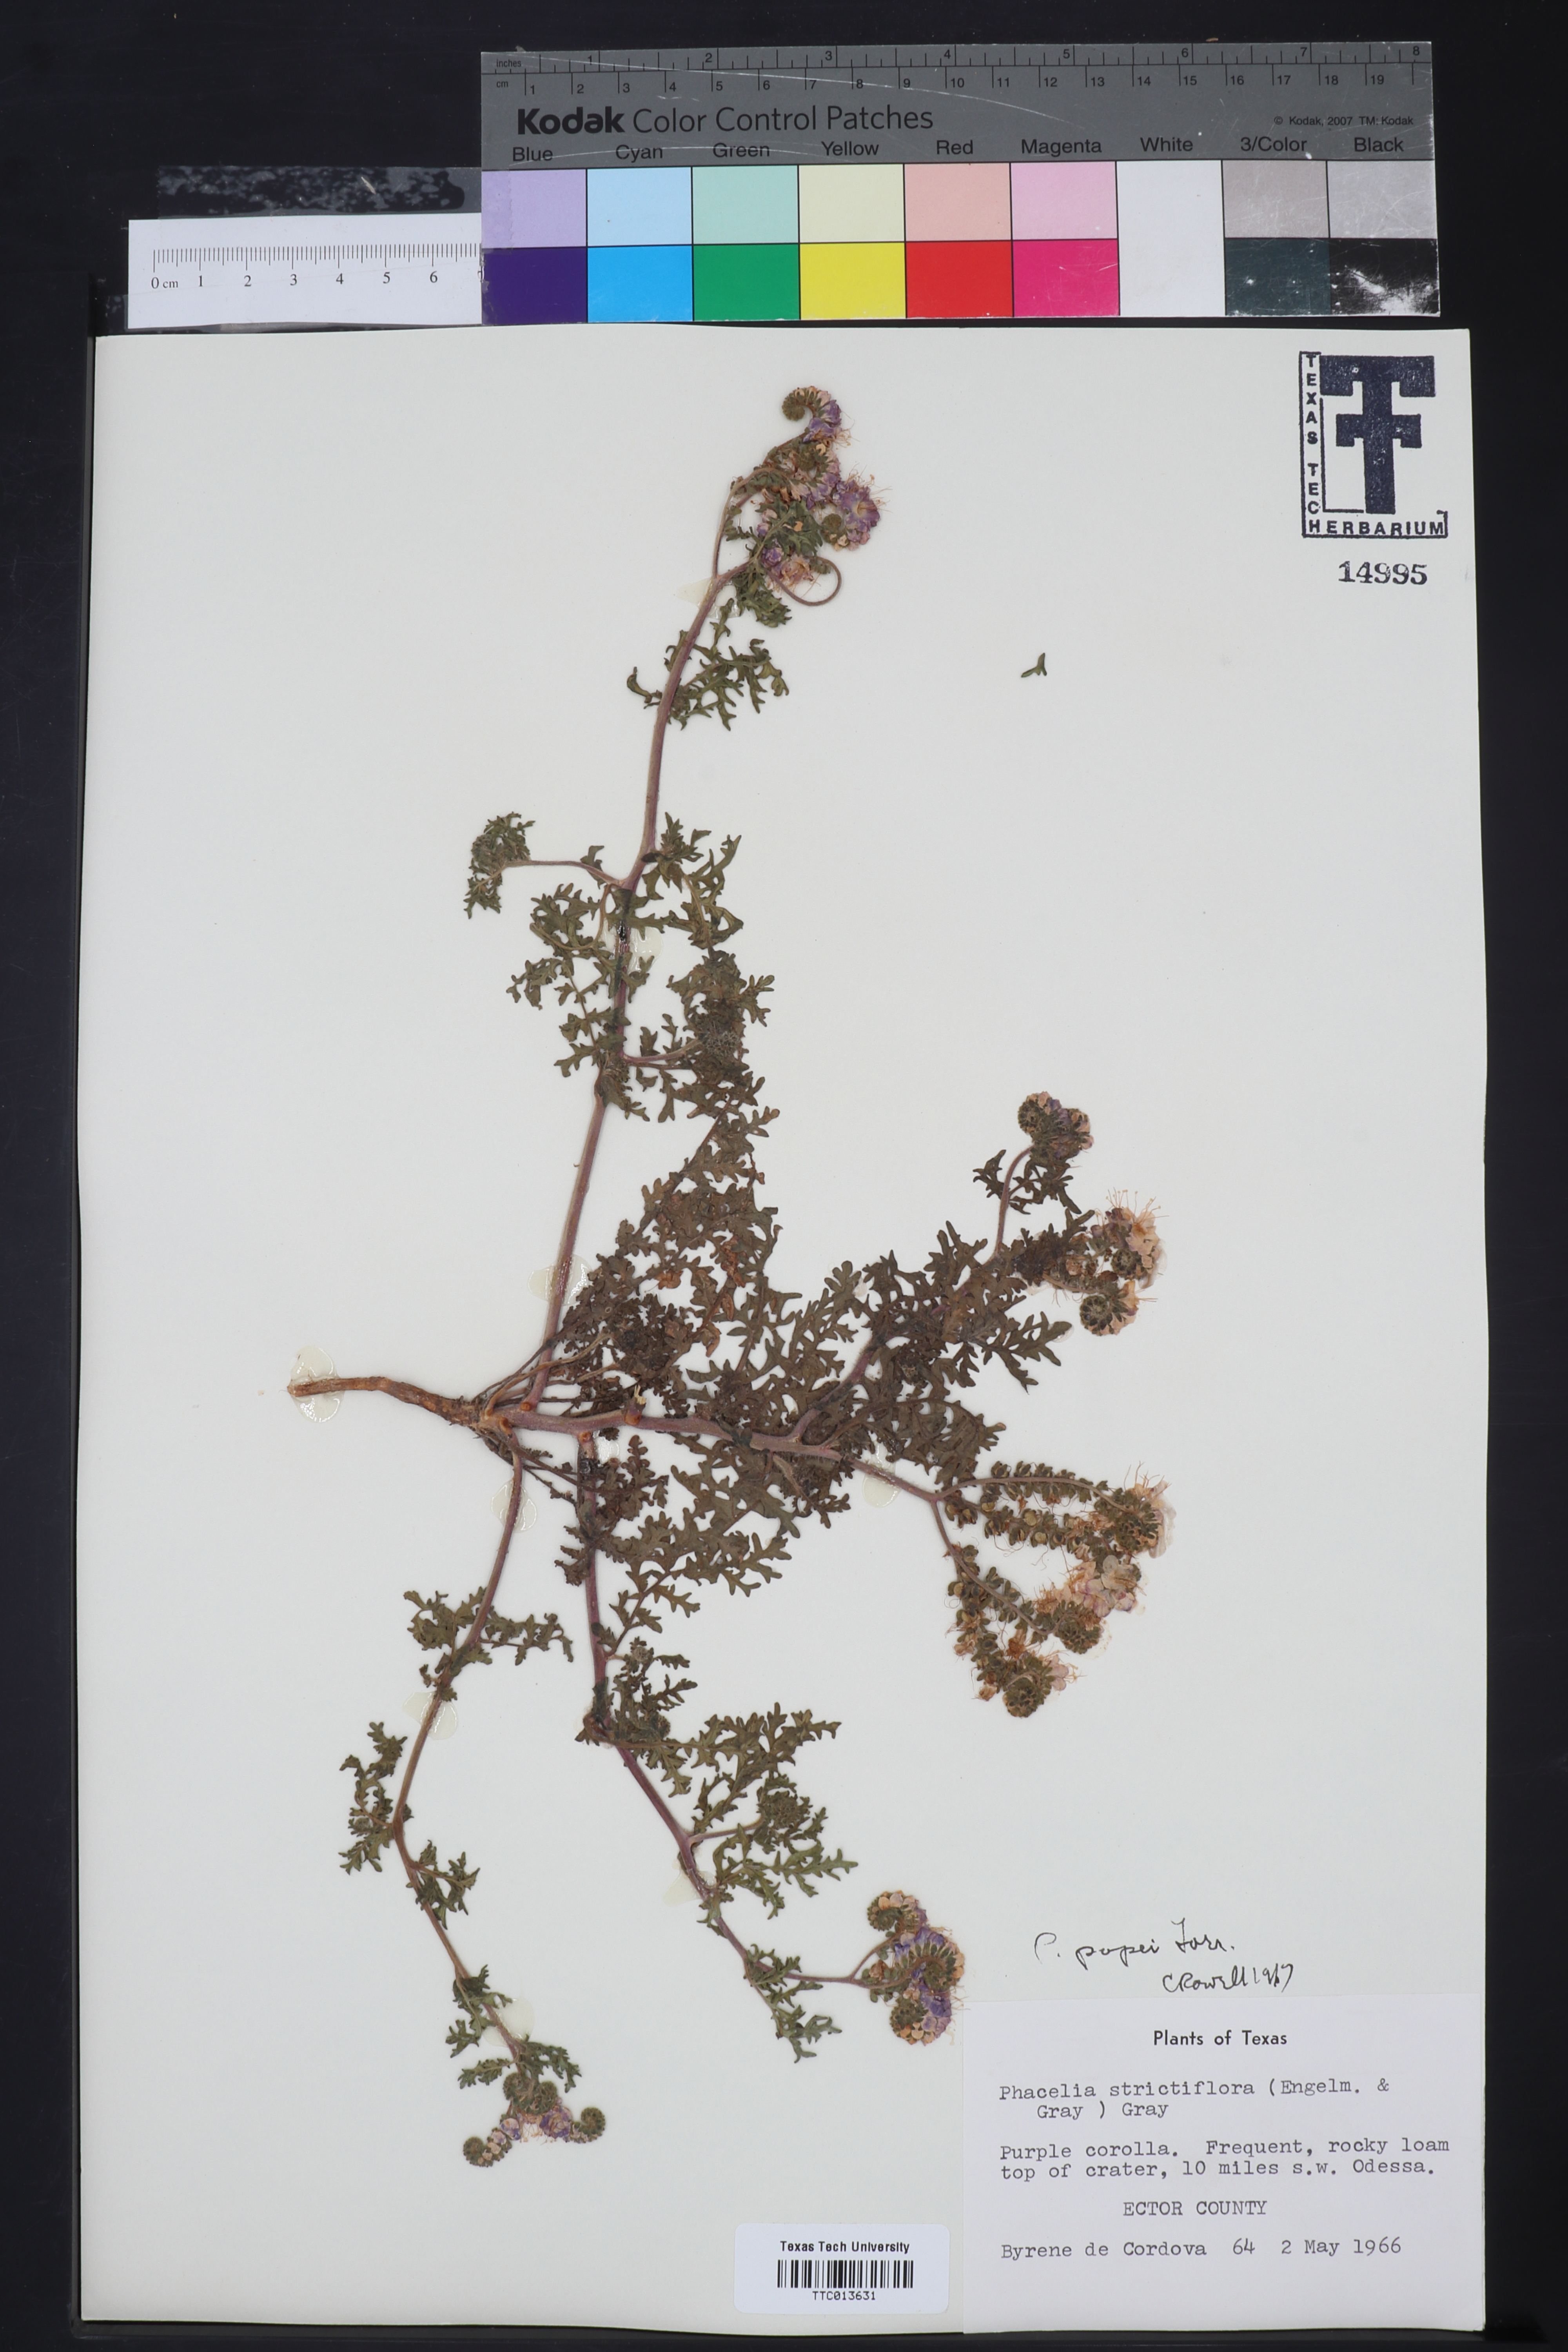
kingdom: Plantae
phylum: Tracheophyta
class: Magnoliopsida
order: Boraginales
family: Hydrophyllaceae
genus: Phacelia
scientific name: Phacelia popei
